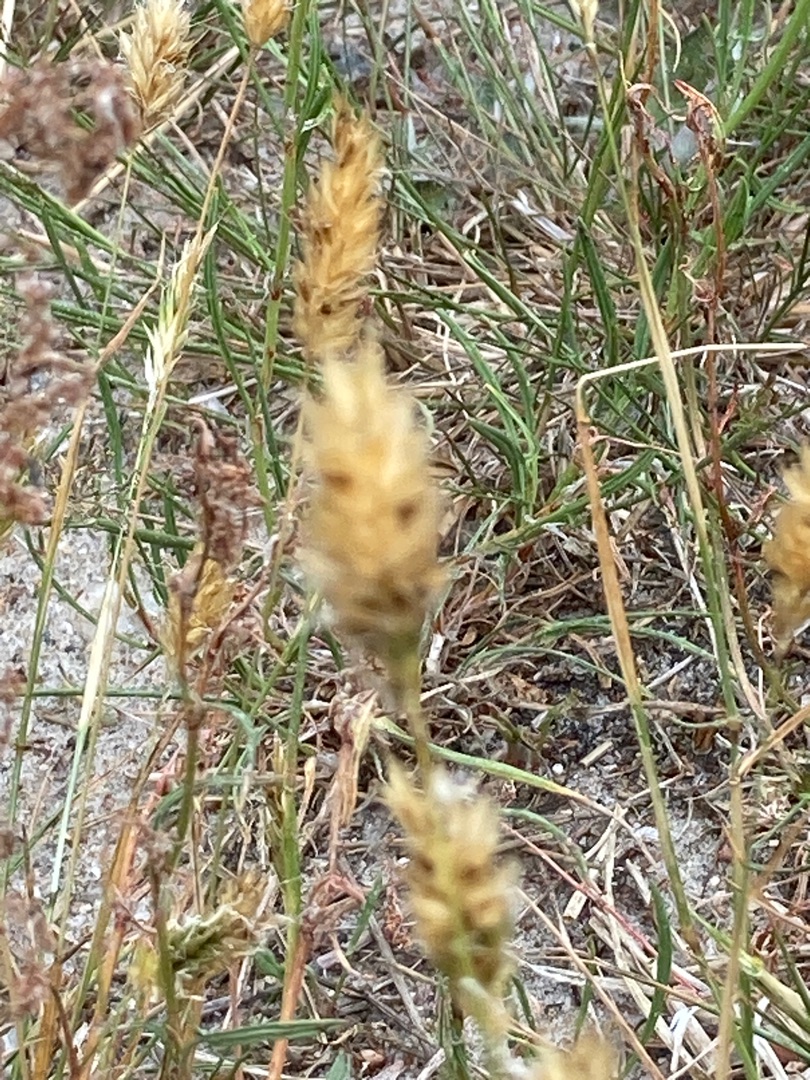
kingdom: Plantae
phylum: Tracheophyta
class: Liliopsida
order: Poales
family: Poaceae
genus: Anthoxanthum
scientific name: Anthoxanthum odoratum
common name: Vellugtende gulaks
